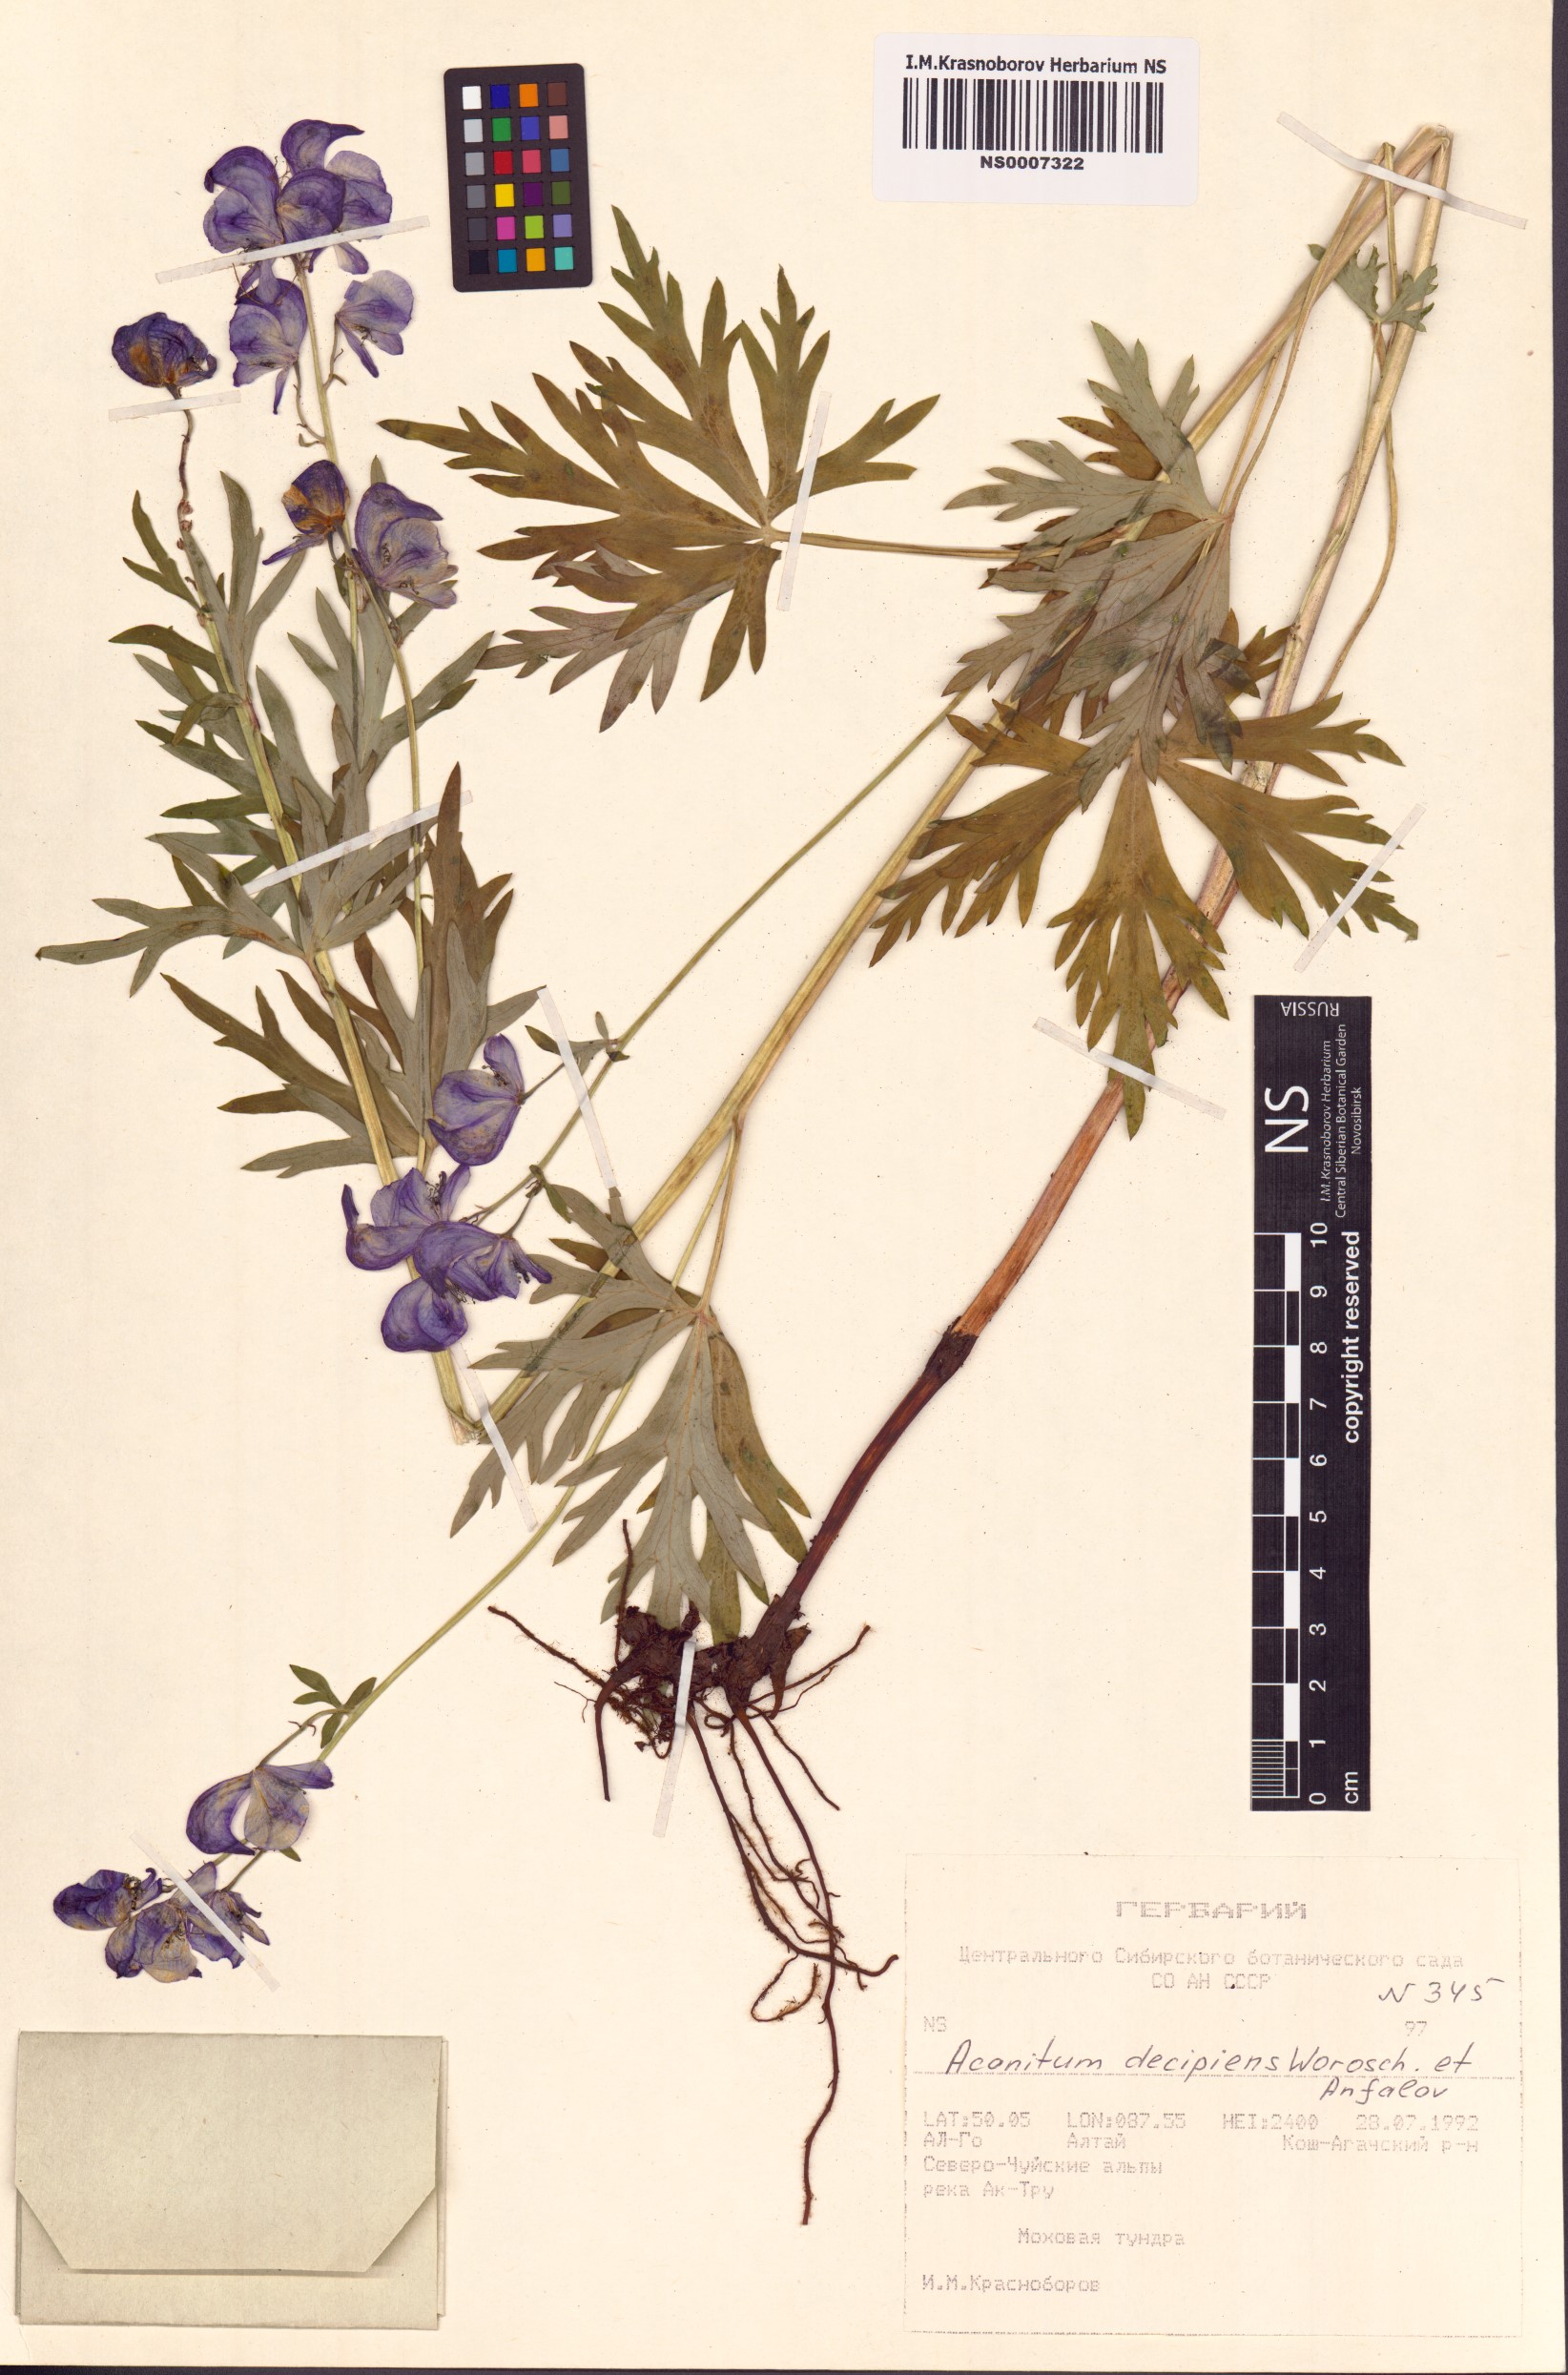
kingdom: Plantae
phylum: Tracheophyta
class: Magnoliopsida
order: Ranunculales
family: Ranunculaceae
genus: Aconitum
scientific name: Aconitum decipiens
